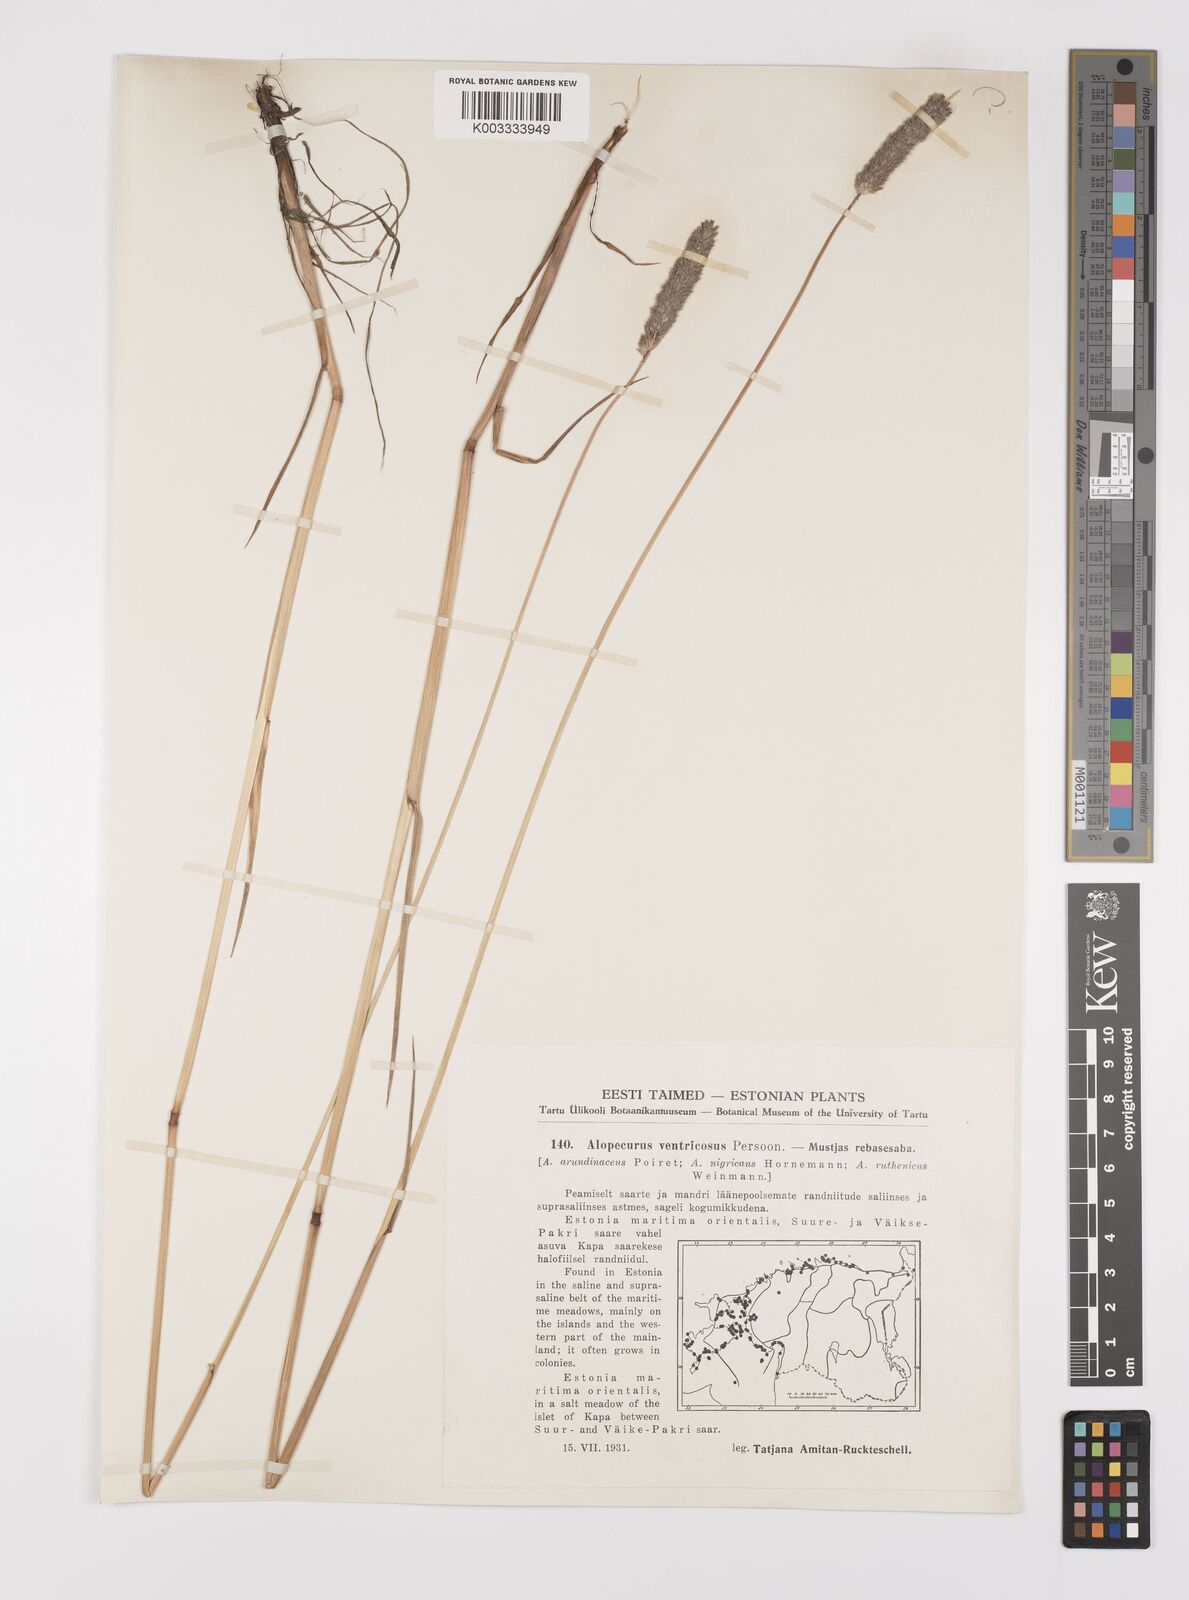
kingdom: Plantae
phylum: Tracheophyta
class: Liliopsida
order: Poales
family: Poaceae
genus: Alopecurus
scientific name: Alopecurus arundinaceus
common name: Creeping meadow foxtail
